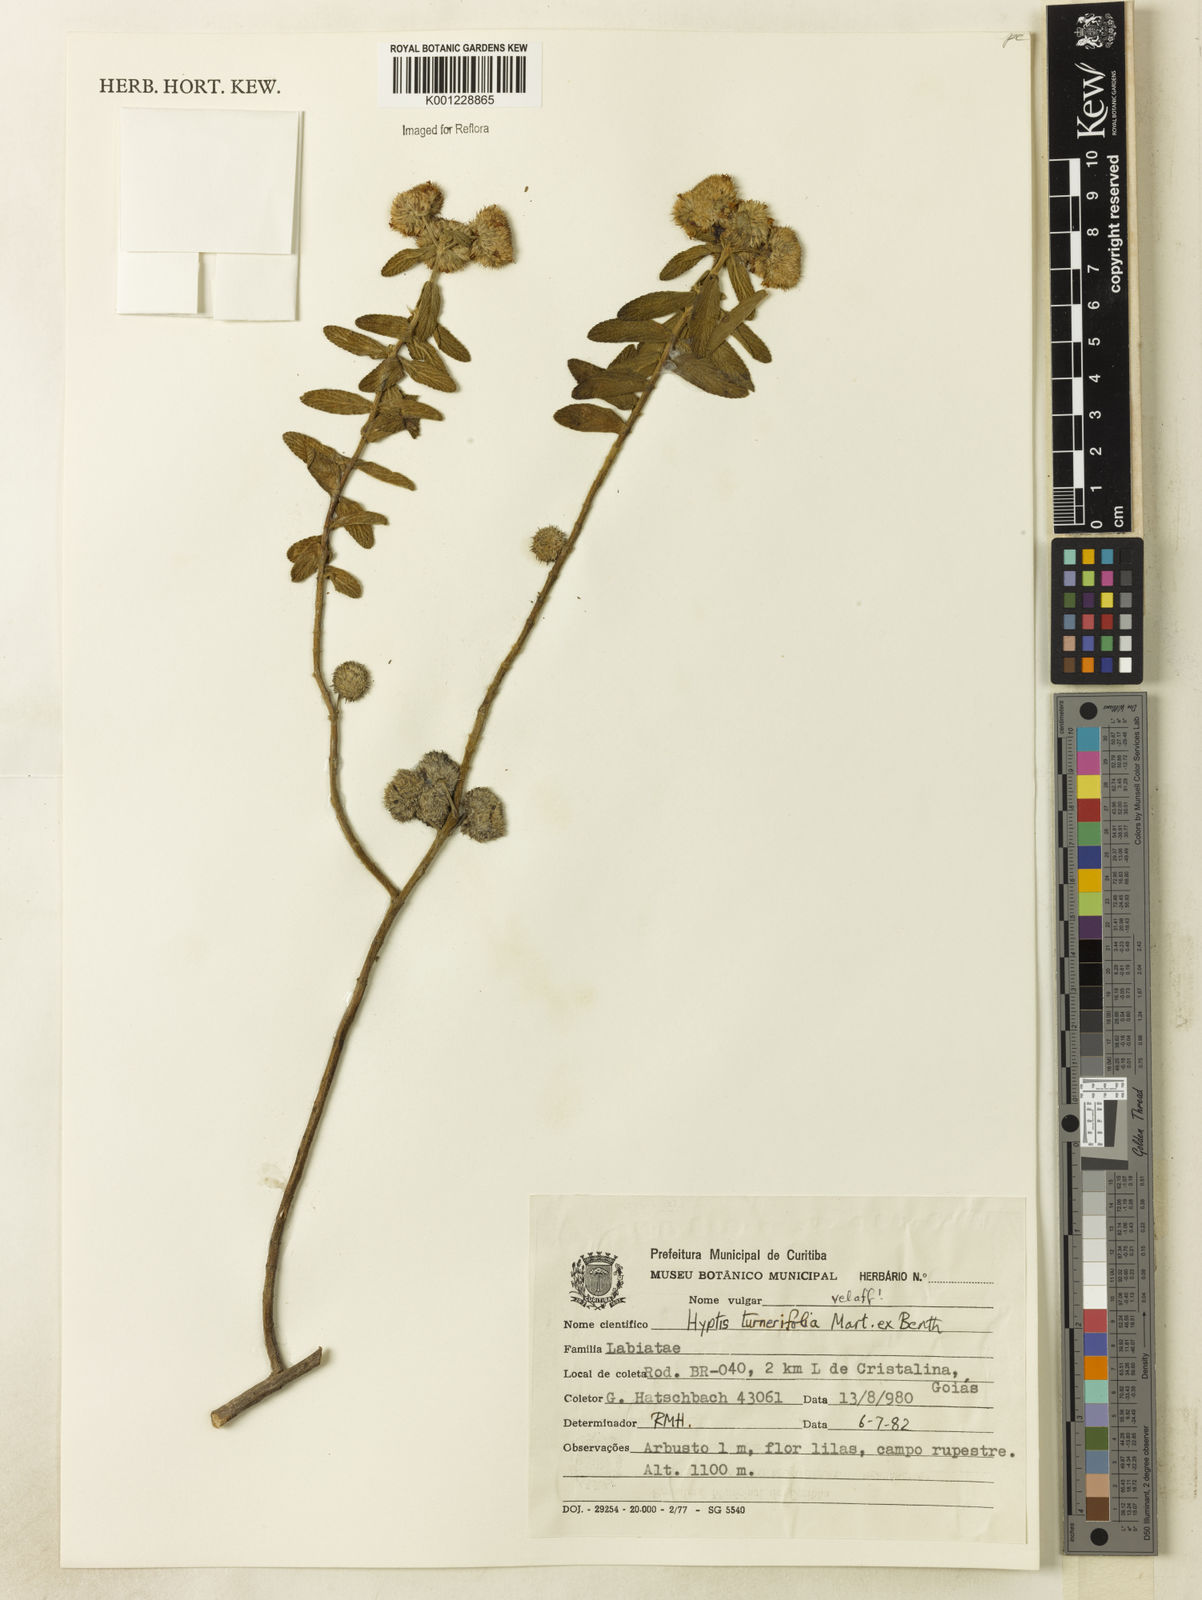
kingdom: Plantae
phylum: Tracheophyta
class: Magnoliopsida
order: Lamiales
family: Lamiaceae
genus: Hyptis
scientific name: Hyptis turnerifolia
